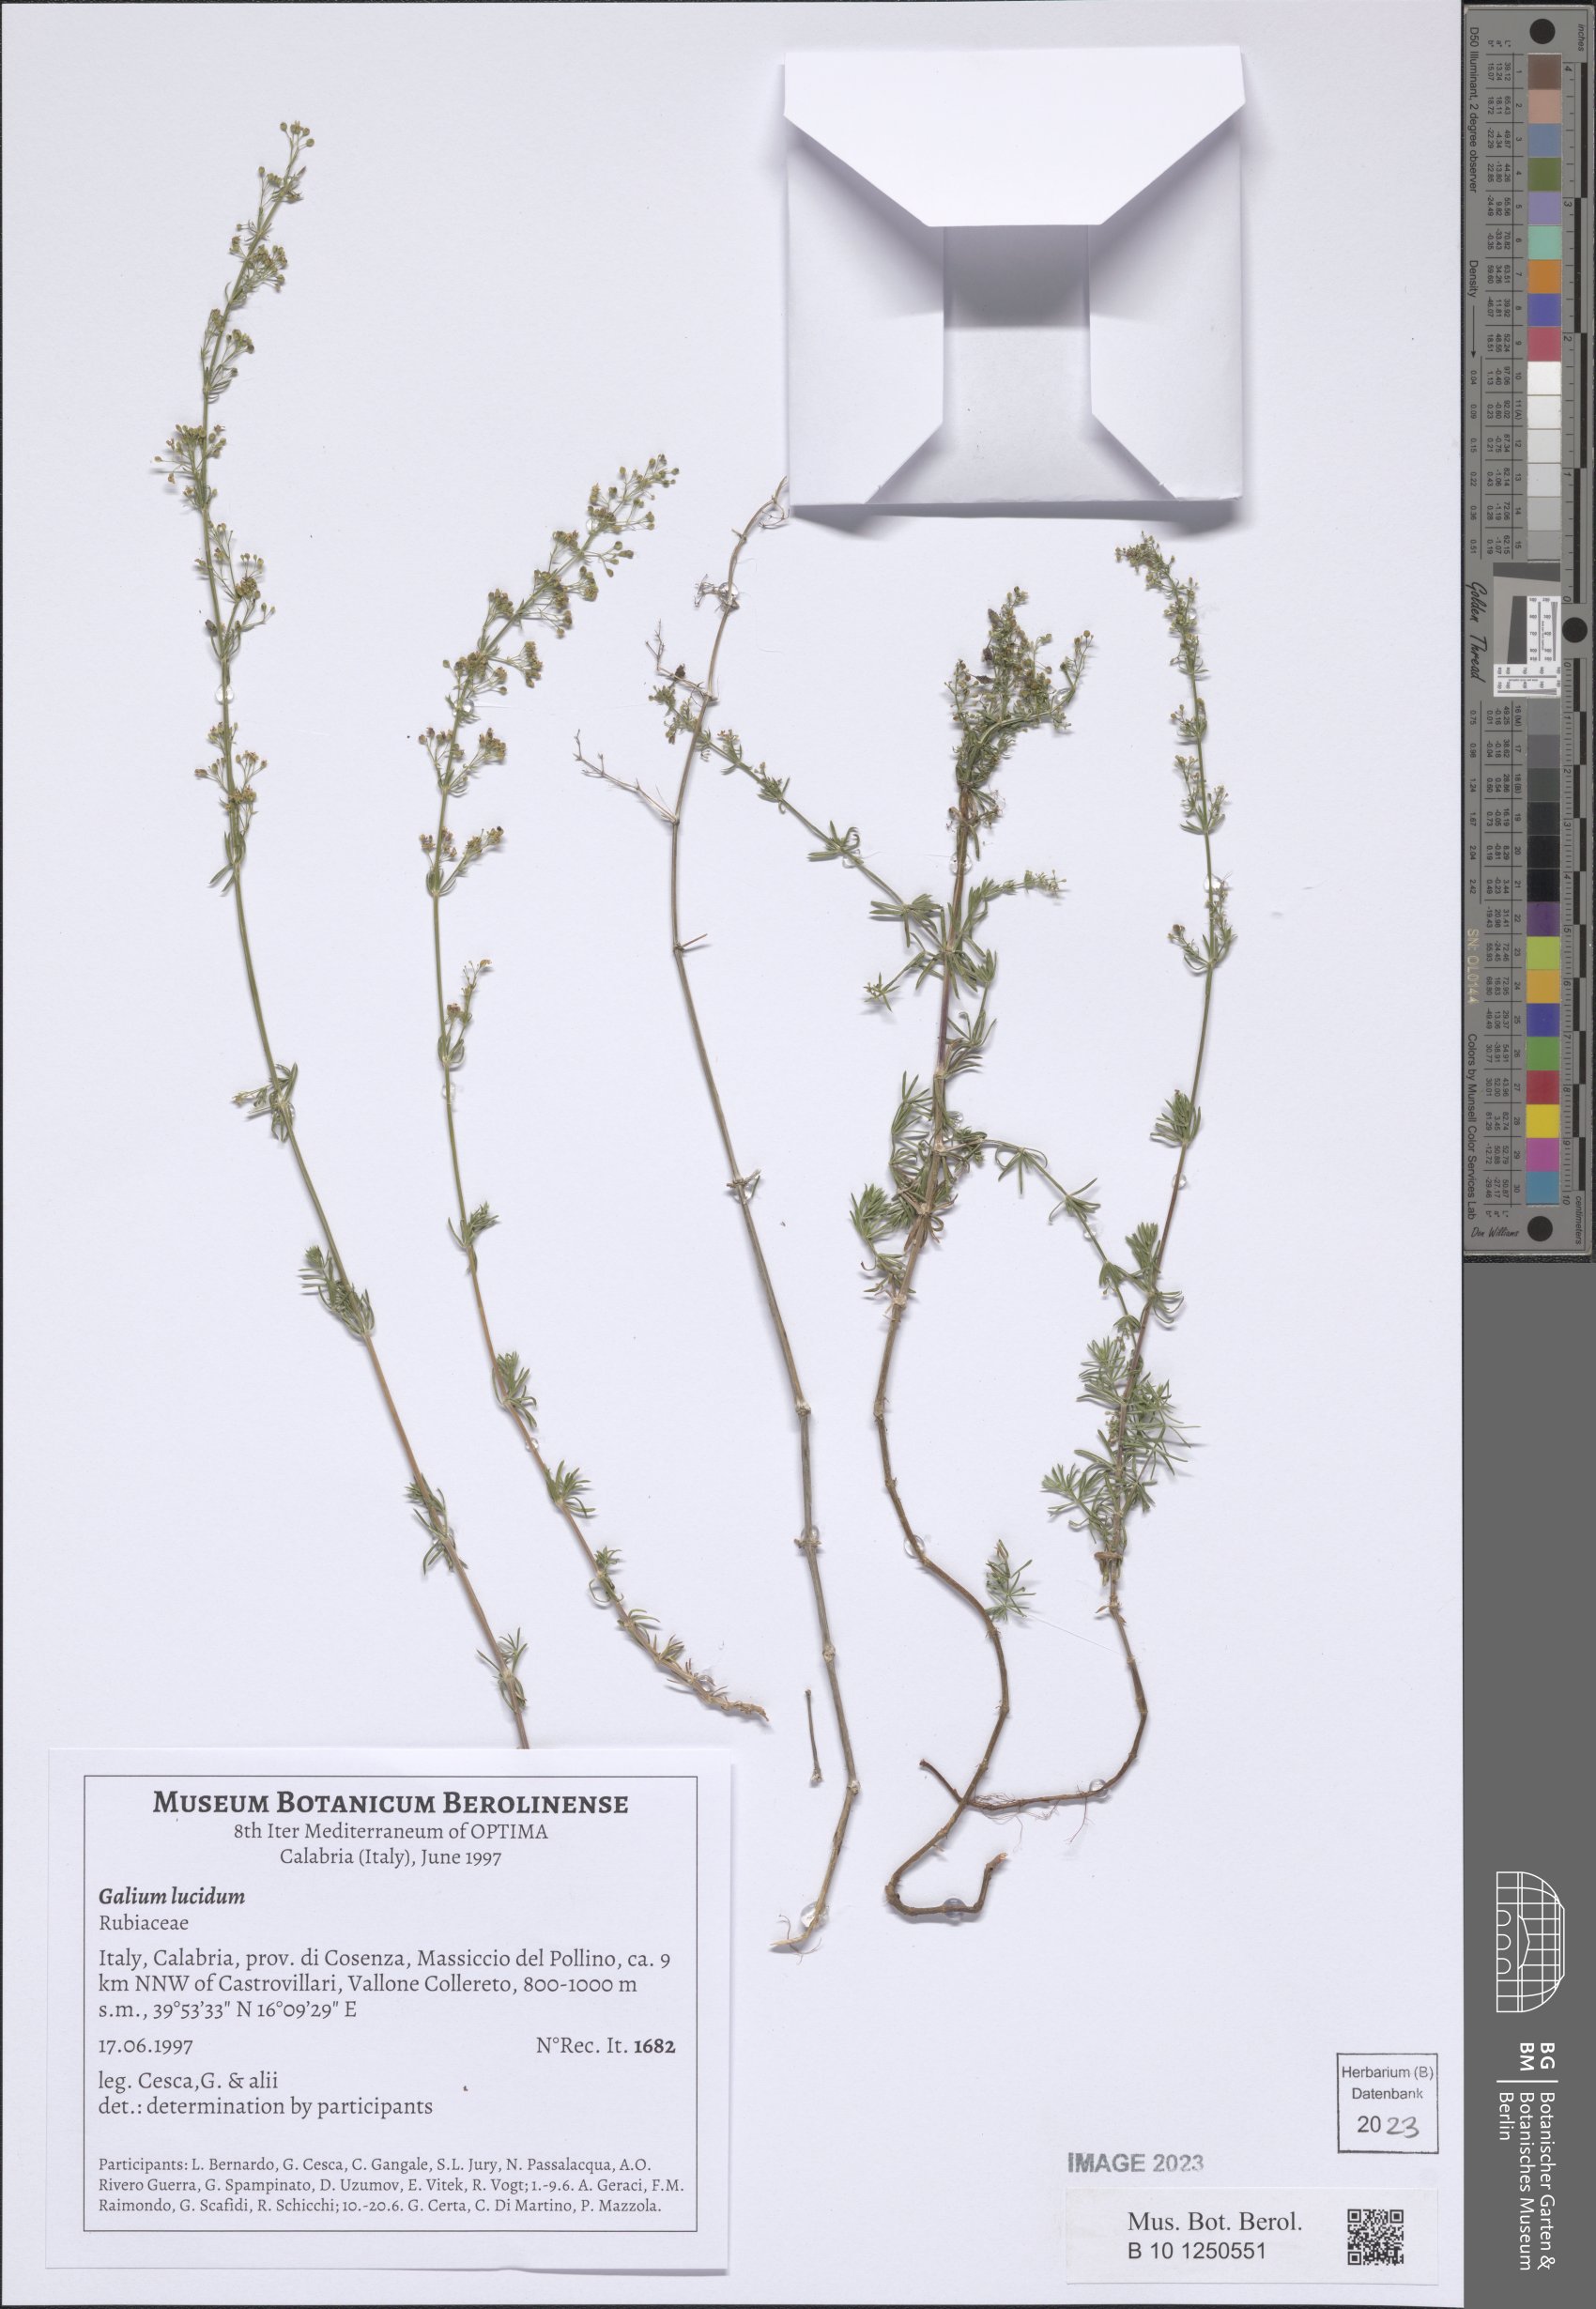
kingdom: Plantae
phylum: Tracheophyta
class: Magnoliopsida
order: Gentianales
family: Rubiaceae
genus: Galium
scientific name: Galium lucidum
